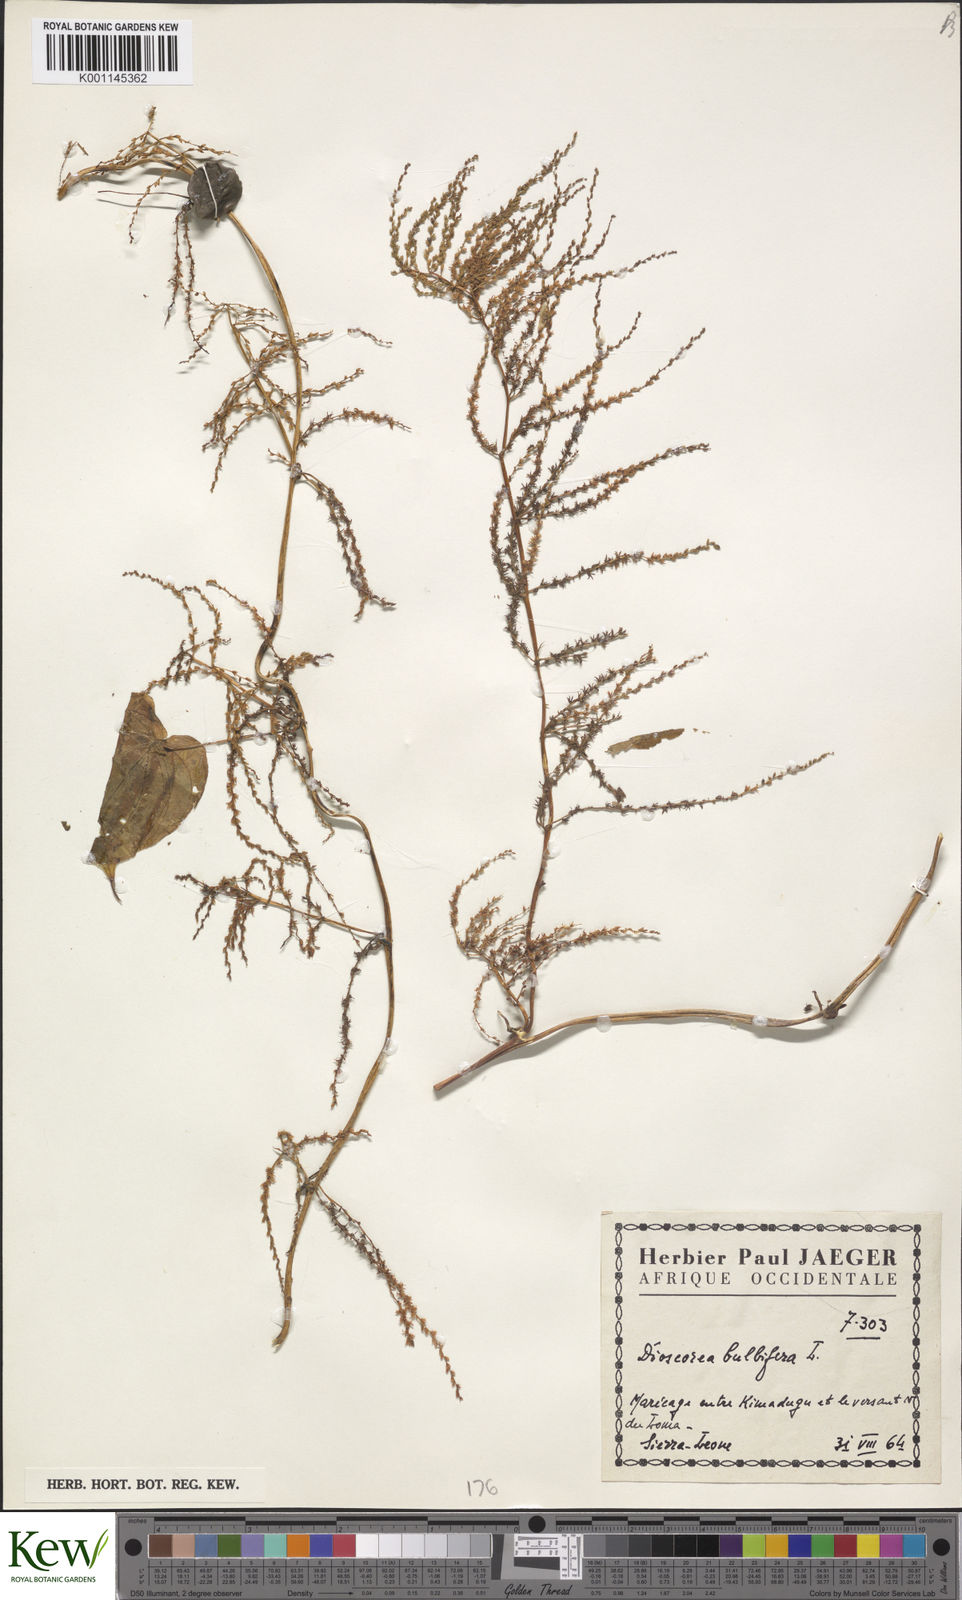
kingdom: Plantae
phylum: Tracheophyta
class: Liliopsida
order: Dioscoreales
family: Dioscoreaceae
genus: Dioscorea
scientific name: Dioscorea bulbifera
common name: Air yam
